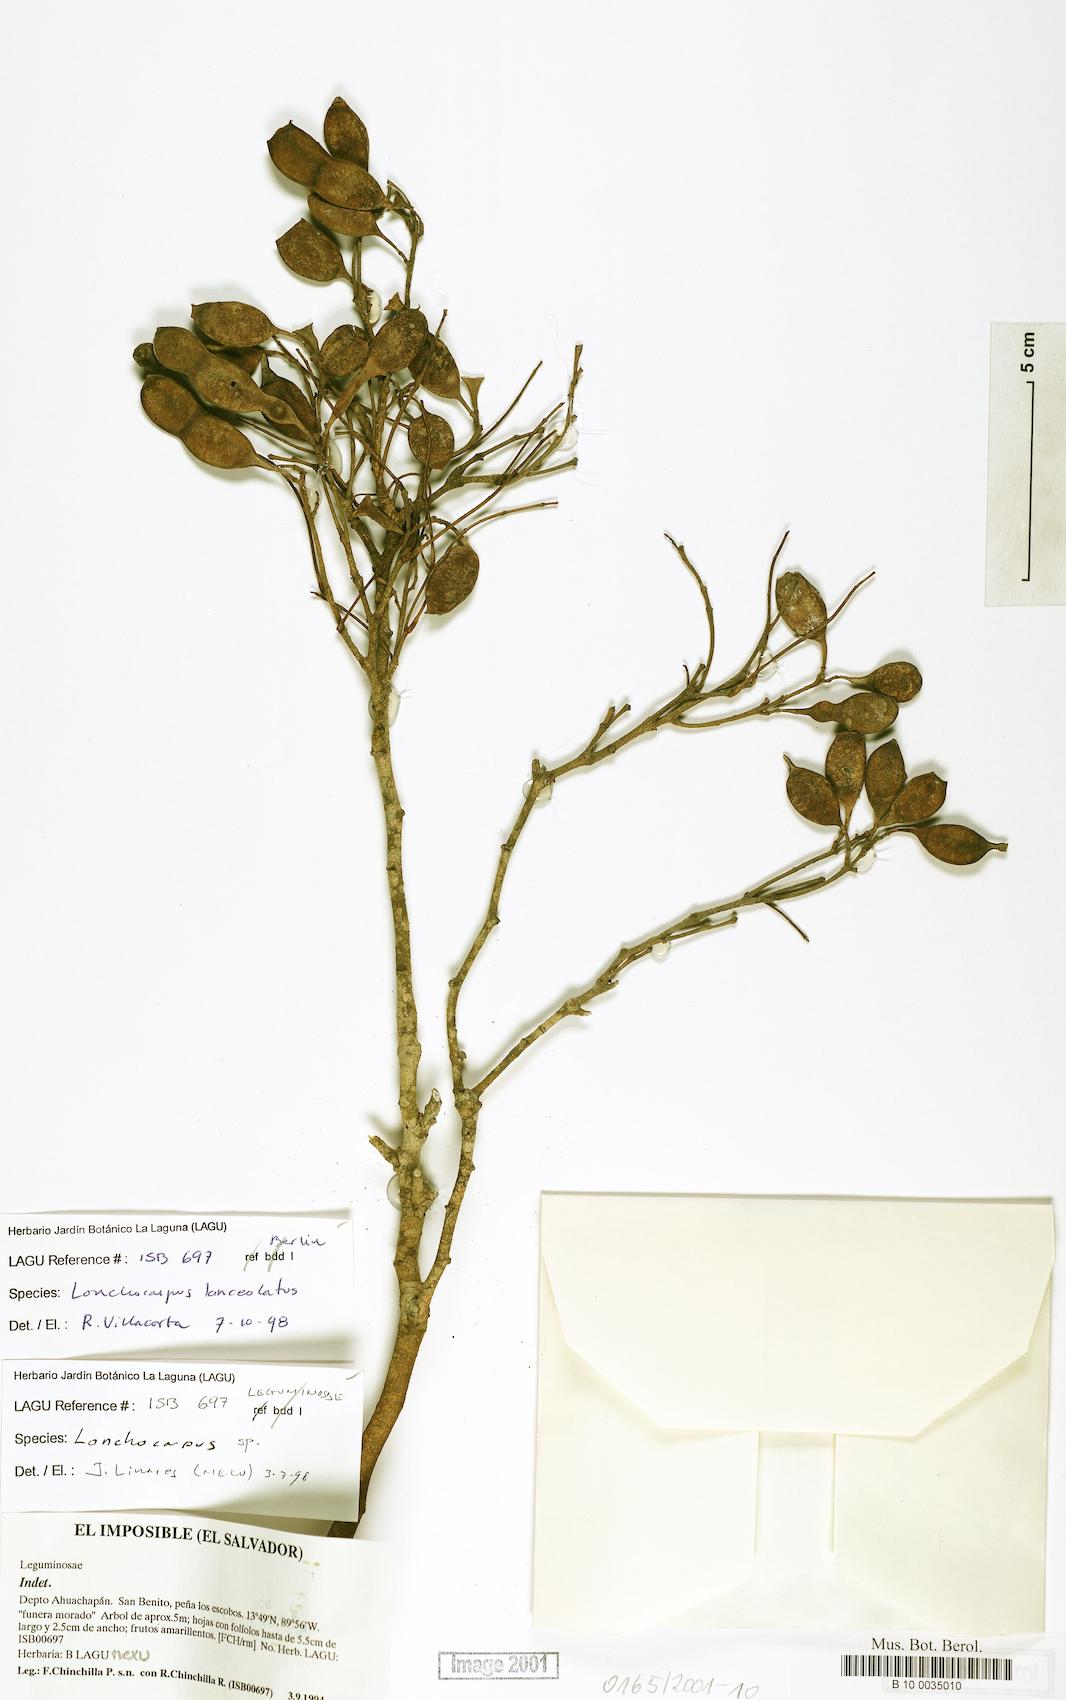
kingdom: Plantae
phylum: Tracheophyta
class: Magnoliopsida
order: Fabales
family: Fabaceae
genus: Lonchocarpus
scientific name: Lonchocarpus lanceolatus
